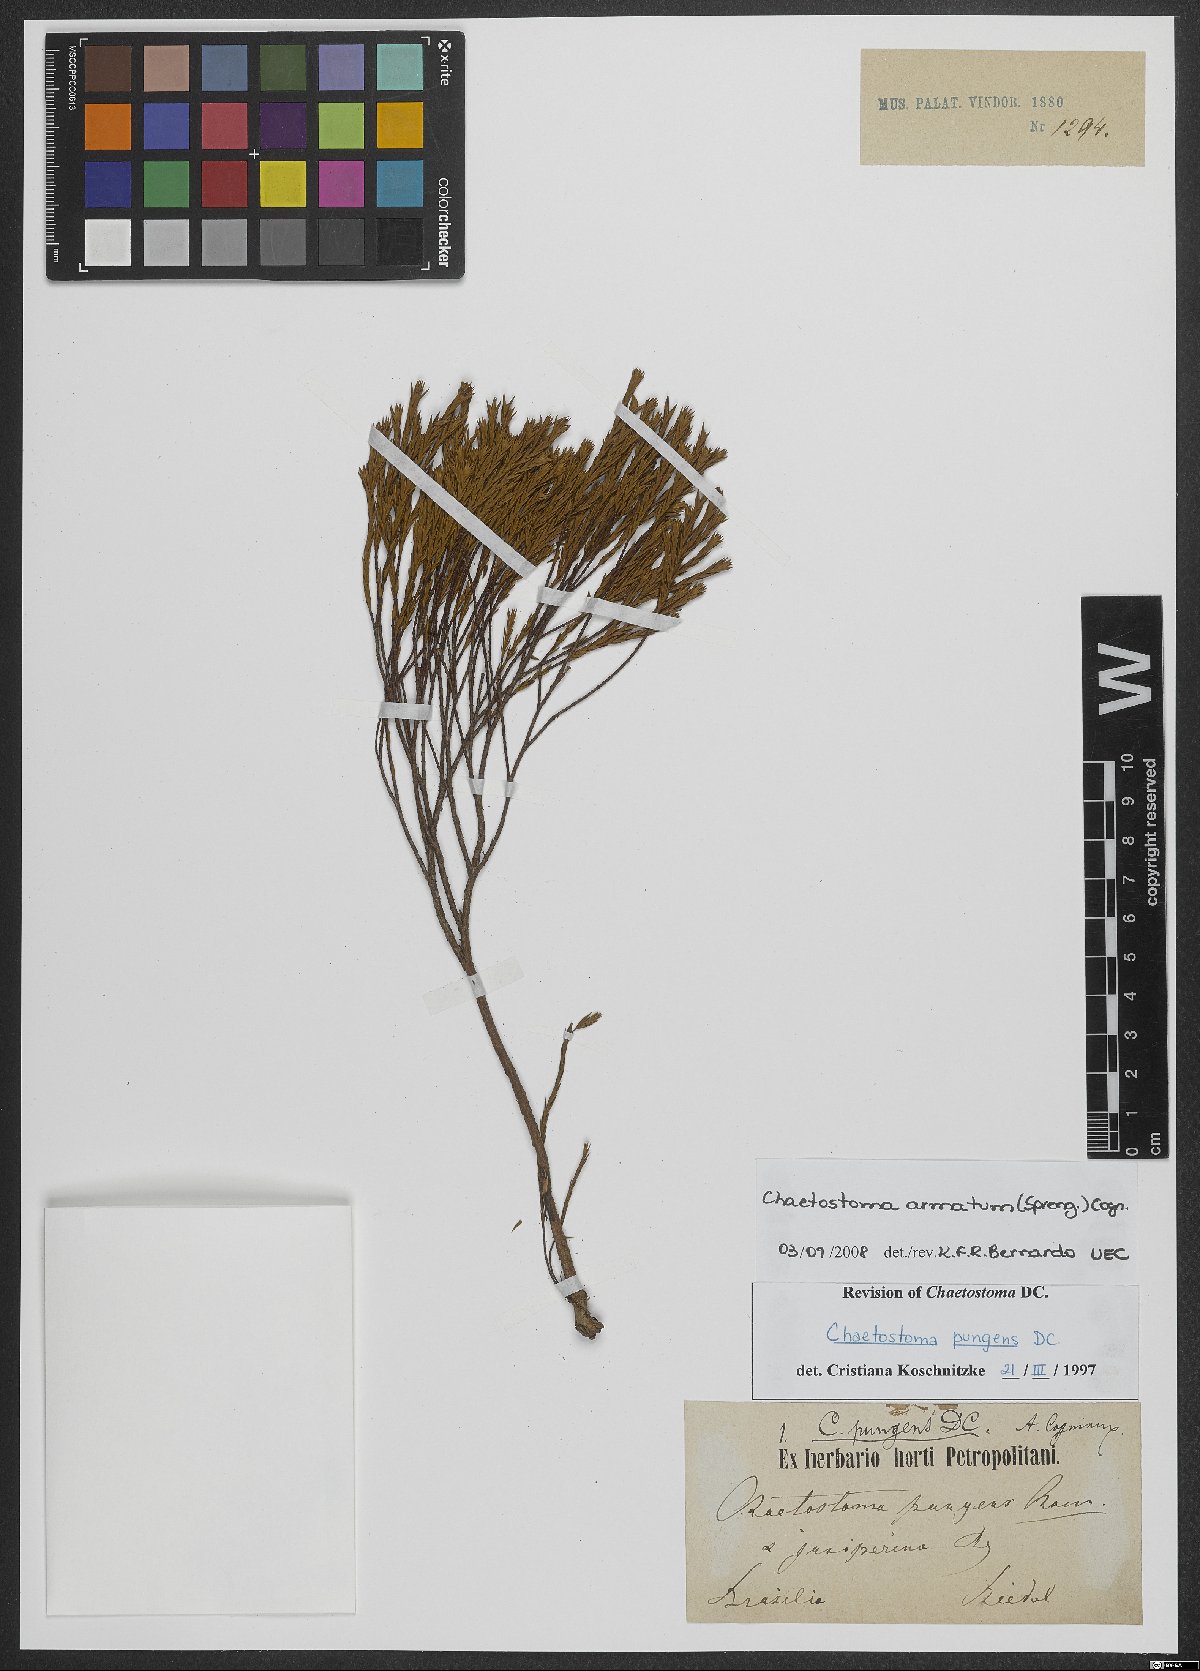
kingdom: Plantae
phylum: Tracheophyta
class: Magnoliopsida
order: Myrtales
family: Melastomataceae
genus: Microlicia
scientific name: Microlicia armata
